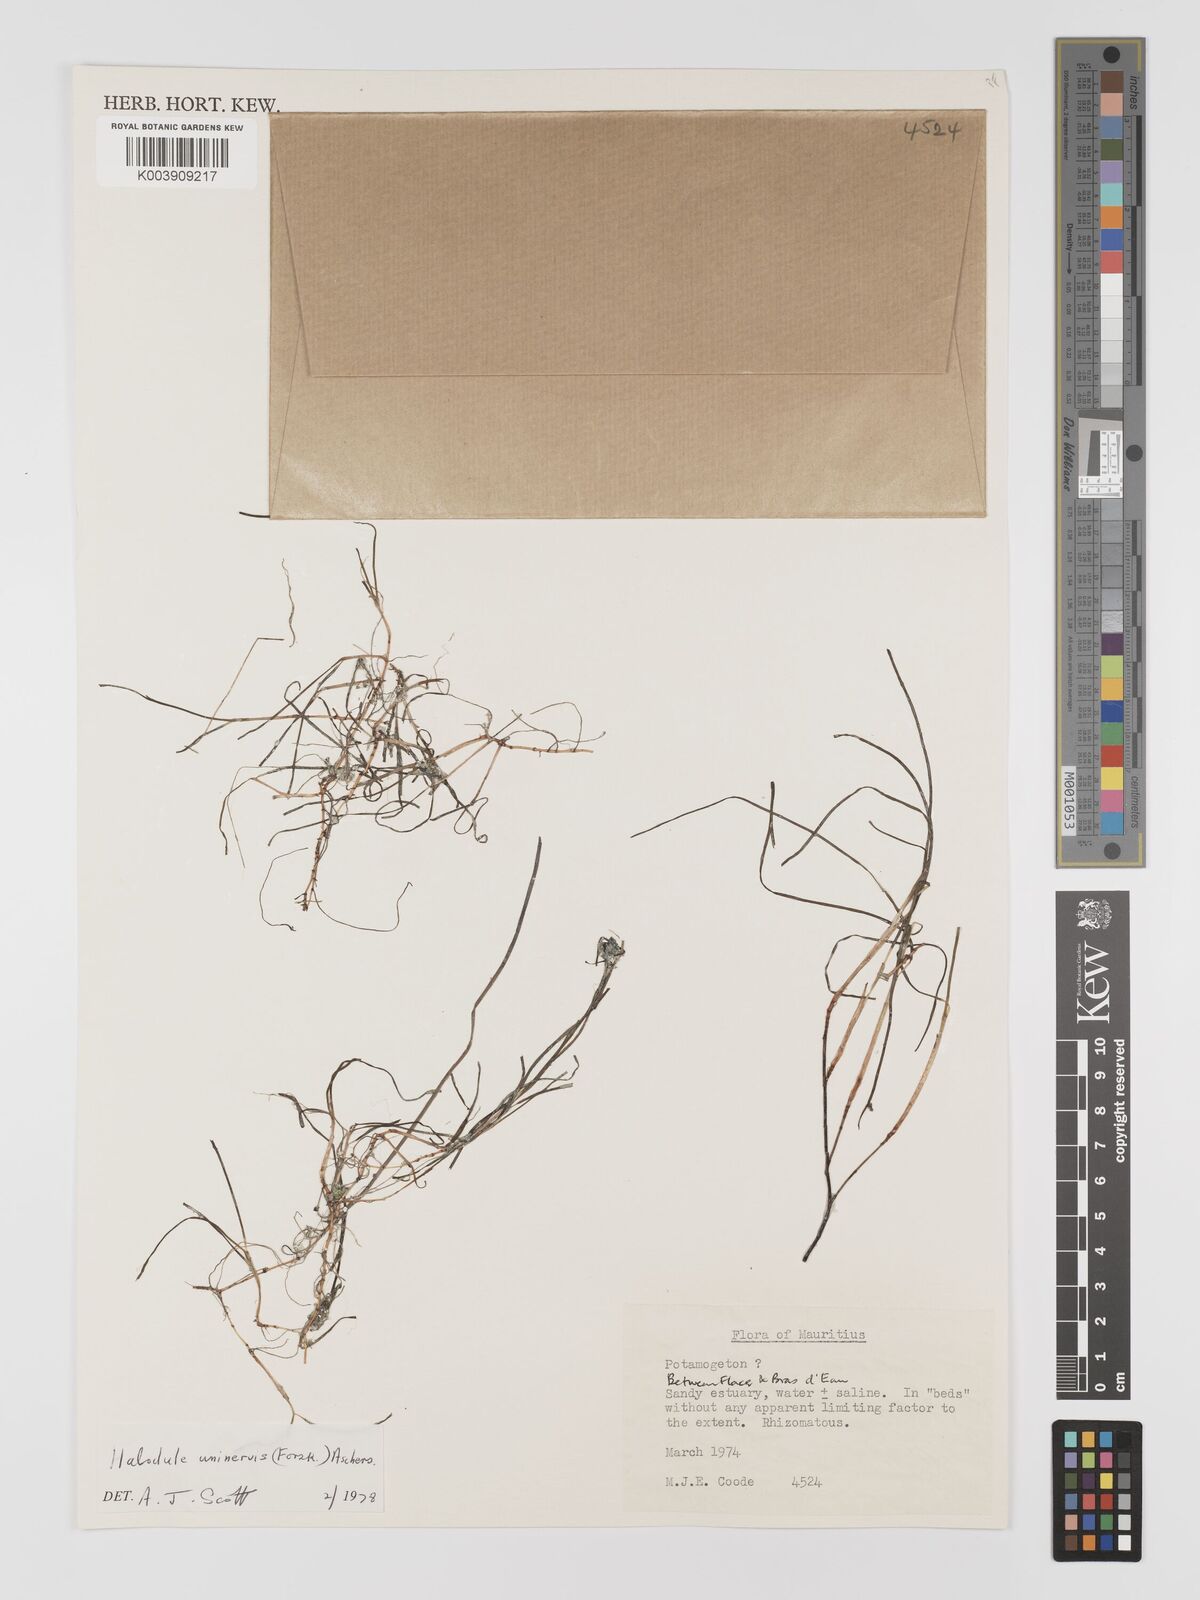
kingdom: Plantae
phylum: Tracheophyta
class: Liliopsida
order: Alismatales
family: Cymodoceaceae
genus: Halodule
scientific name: Halodule uninervis
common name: Narrowleaf seagrass
